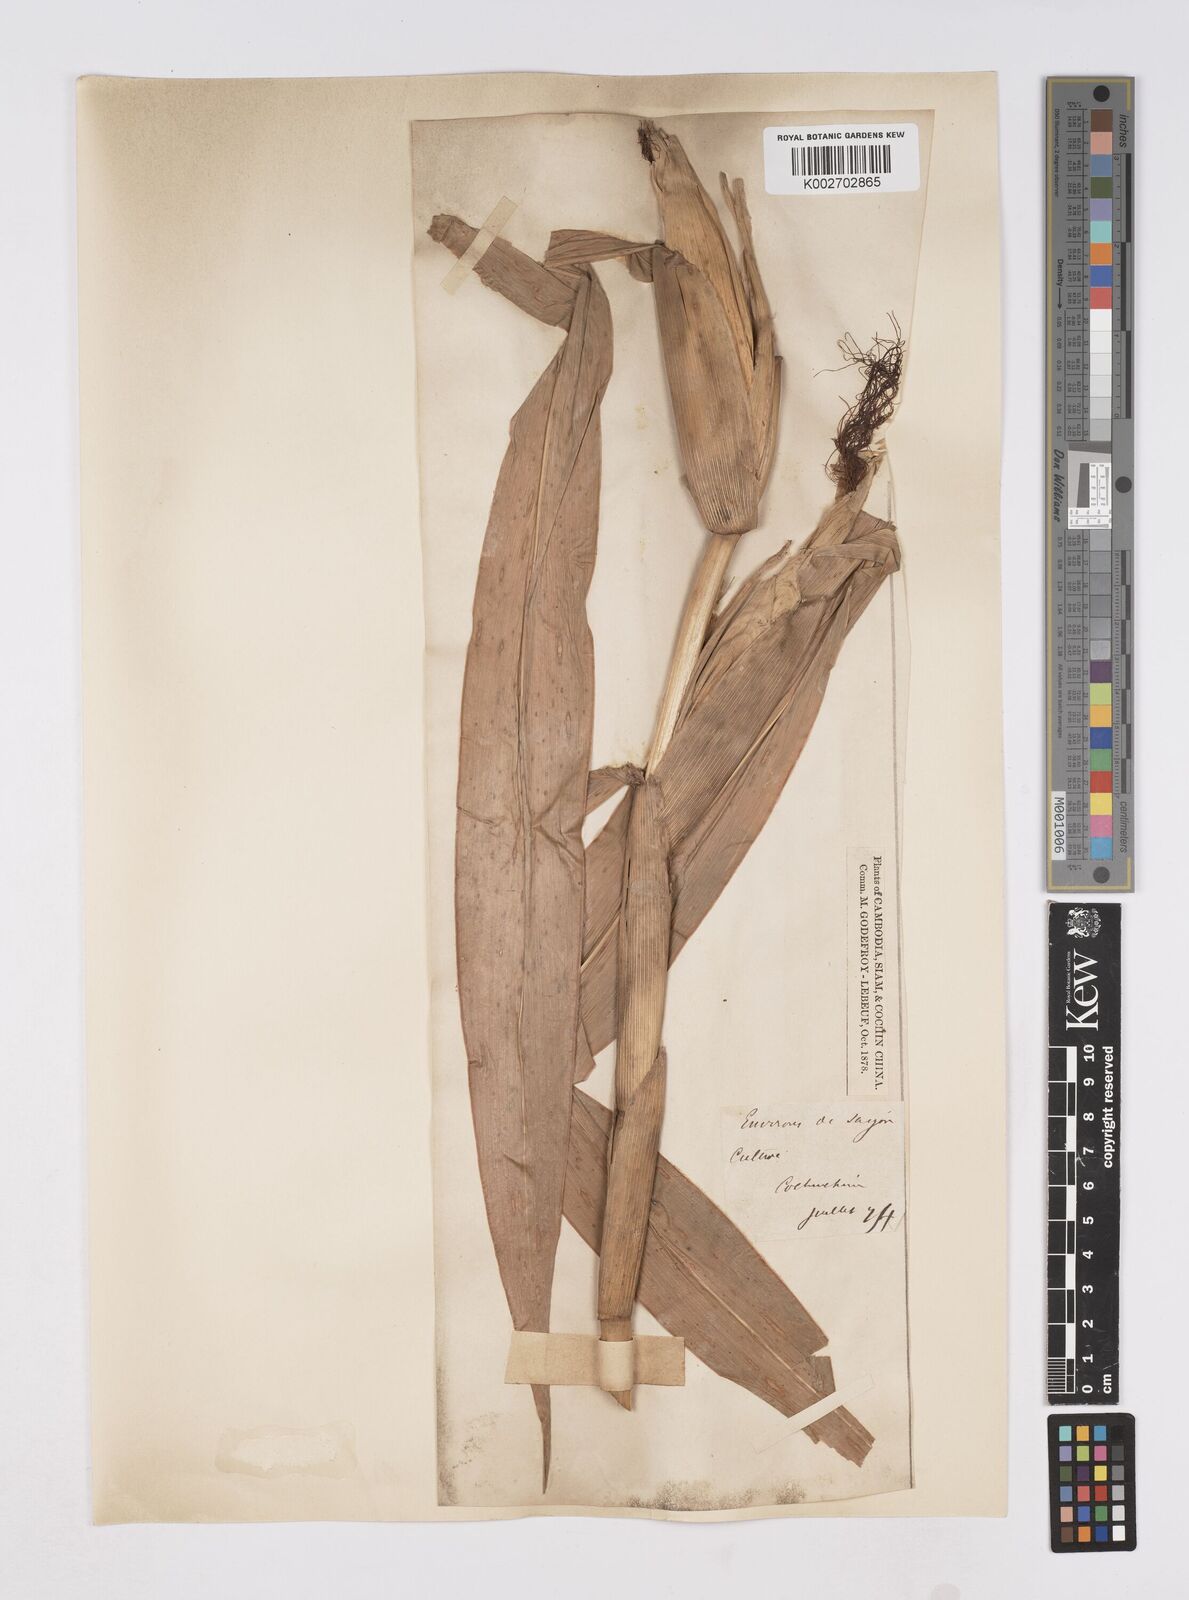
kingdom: Plantae
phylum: Tracheophyta
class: Liliopsida
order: Poales
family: Poaceae
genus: Zea
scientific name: Zea mays
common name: Maize
